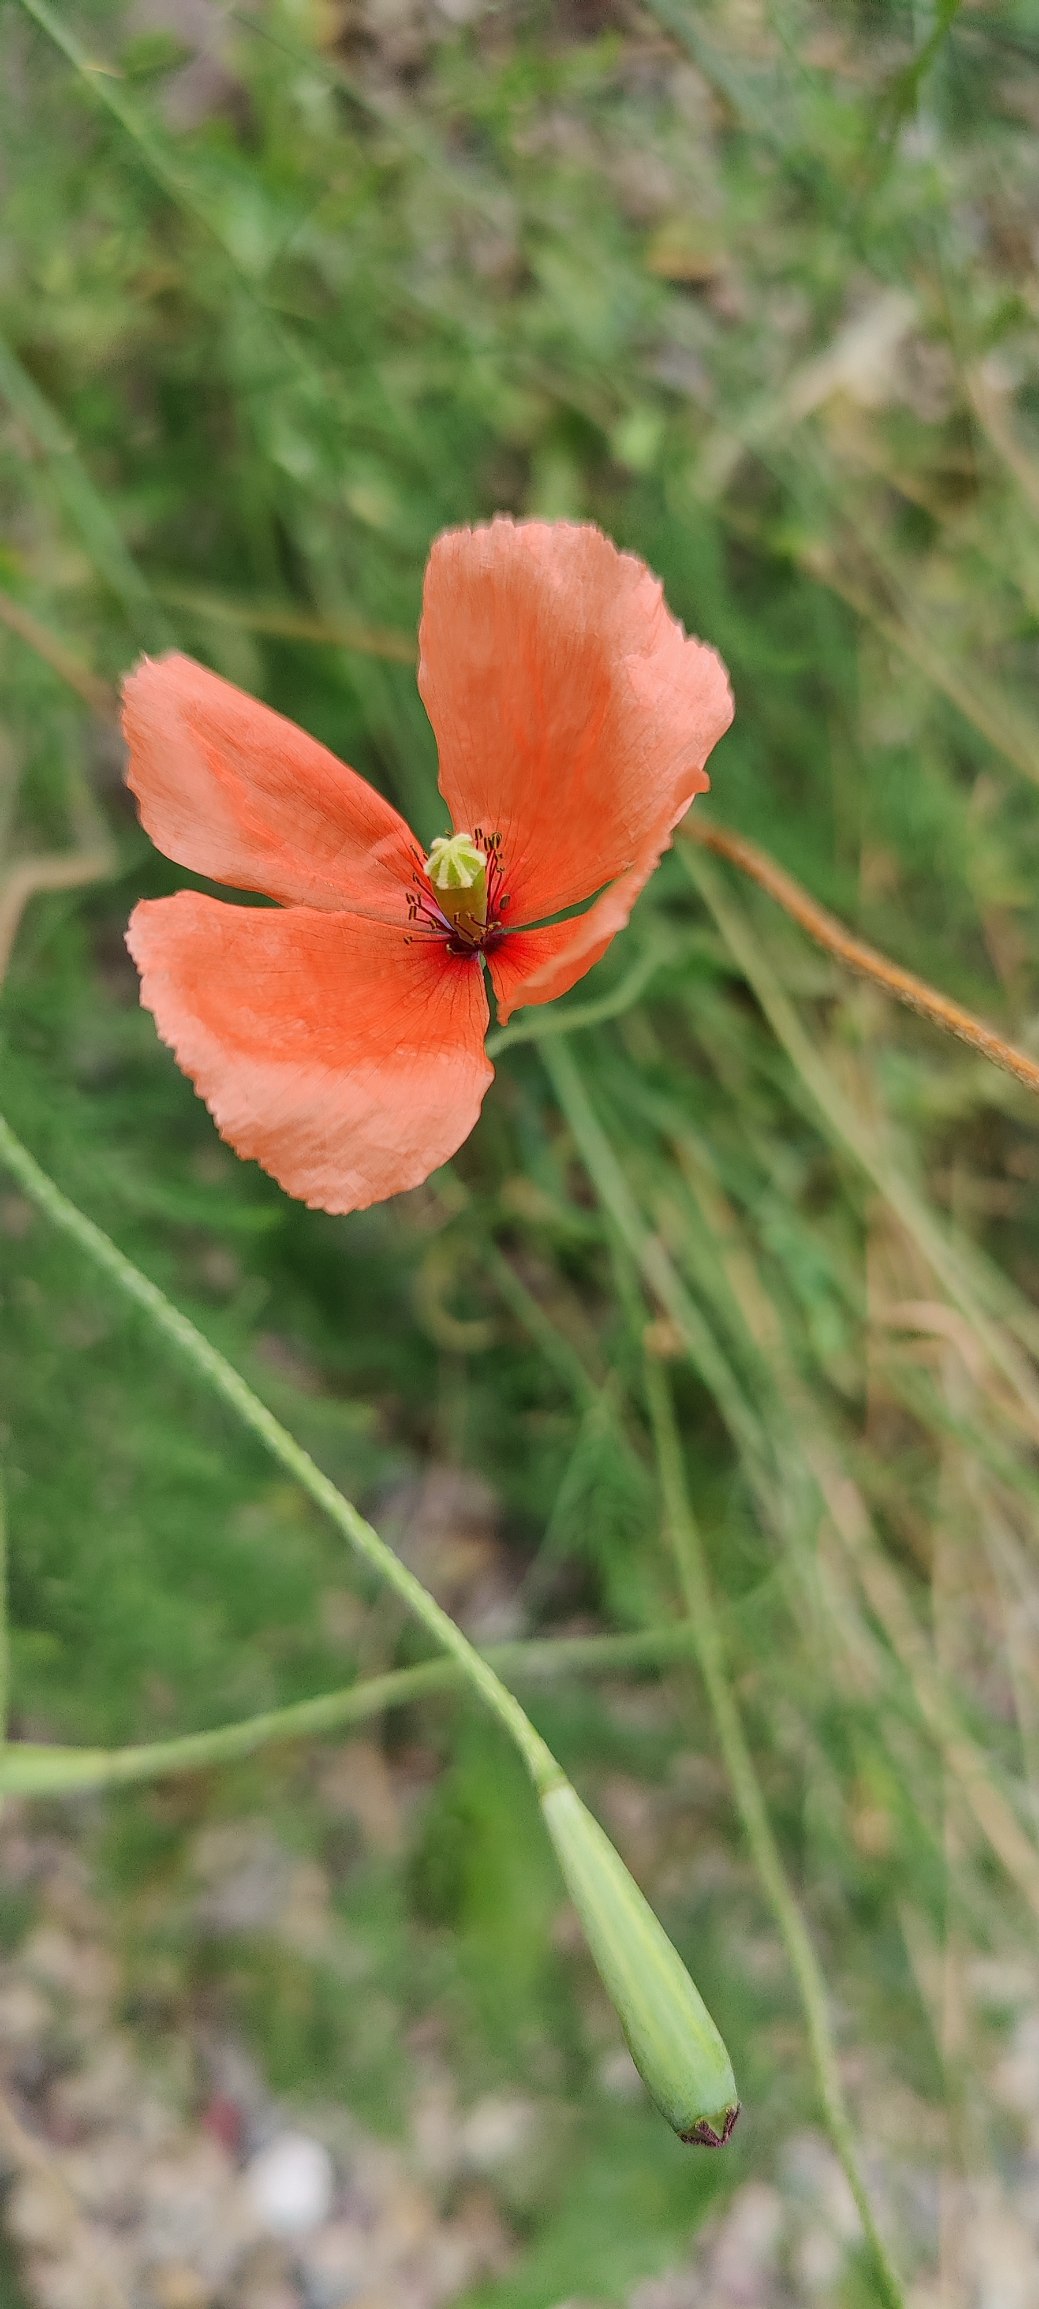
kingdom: Plantae
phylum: Tracheophyta
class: Magnoliopsida
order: Ranunculales
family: Papaveraceae
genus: Papaver
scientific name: Papaver dubium
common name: Gærde-valmue
